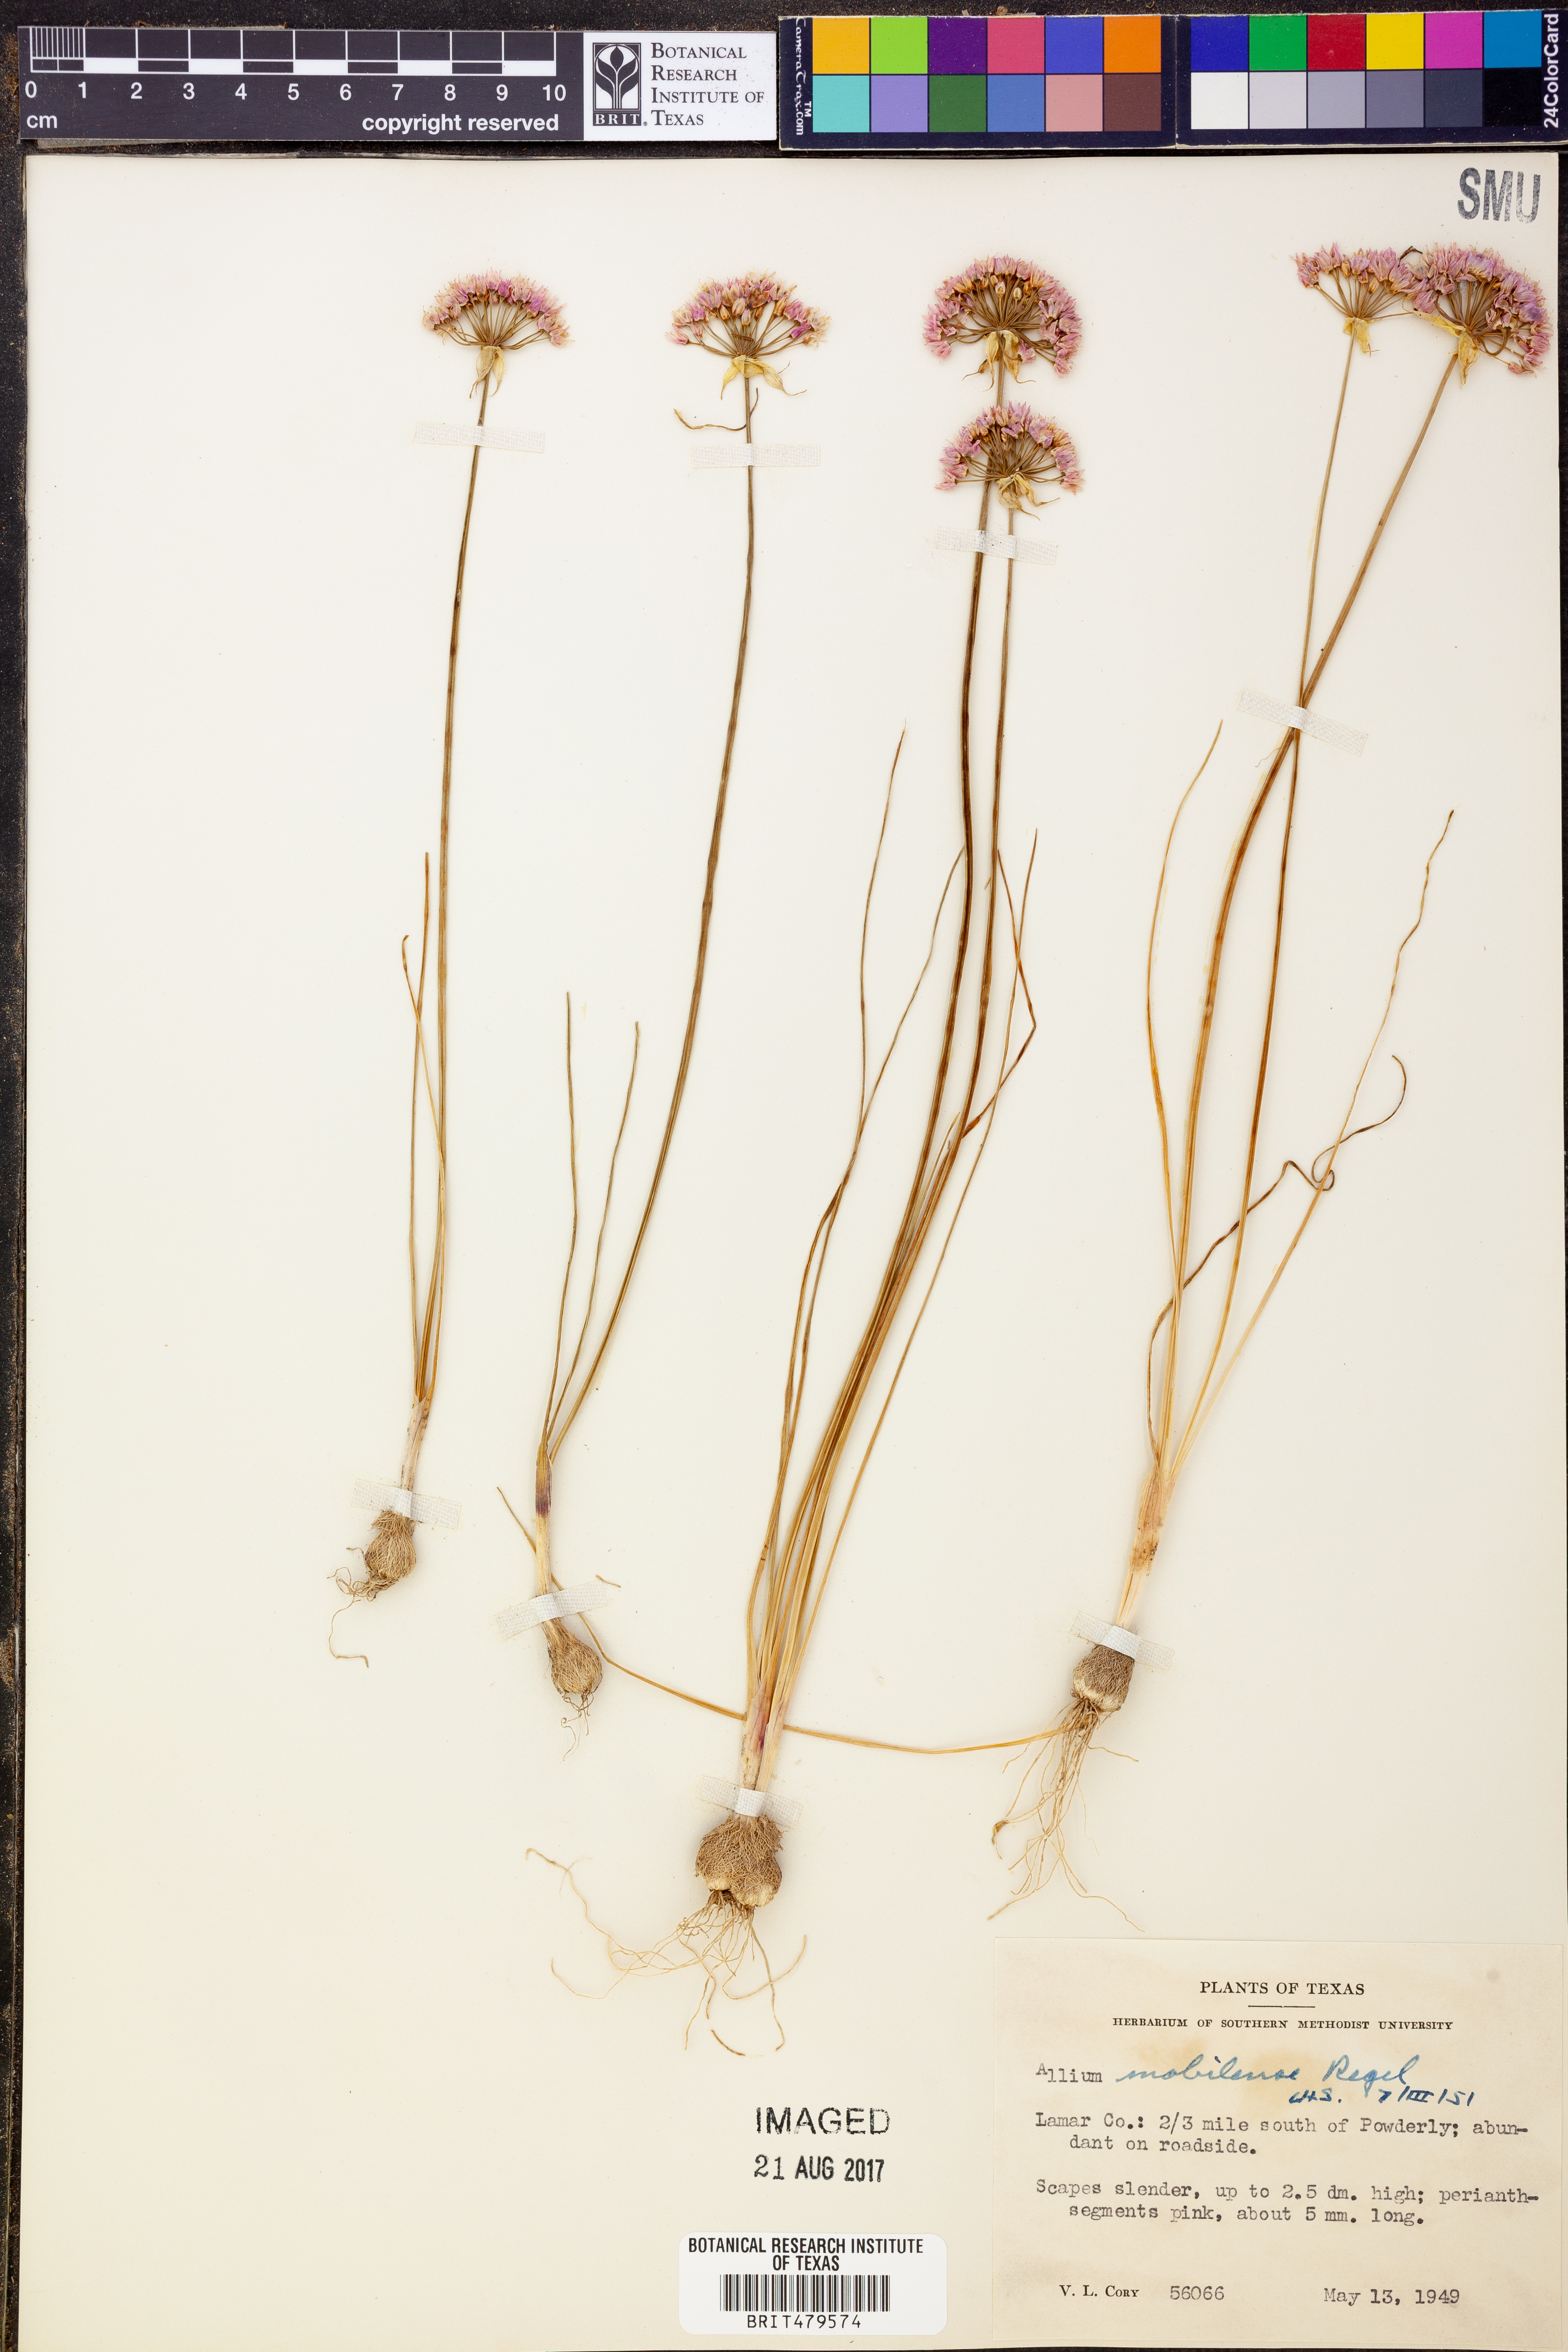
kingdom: Plantae
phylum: Tracheophyta
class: Liliopsida
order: Asparagales
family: Amaryllidaceae
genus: Allium
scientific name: Allium canadense
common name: Meadow garlic
